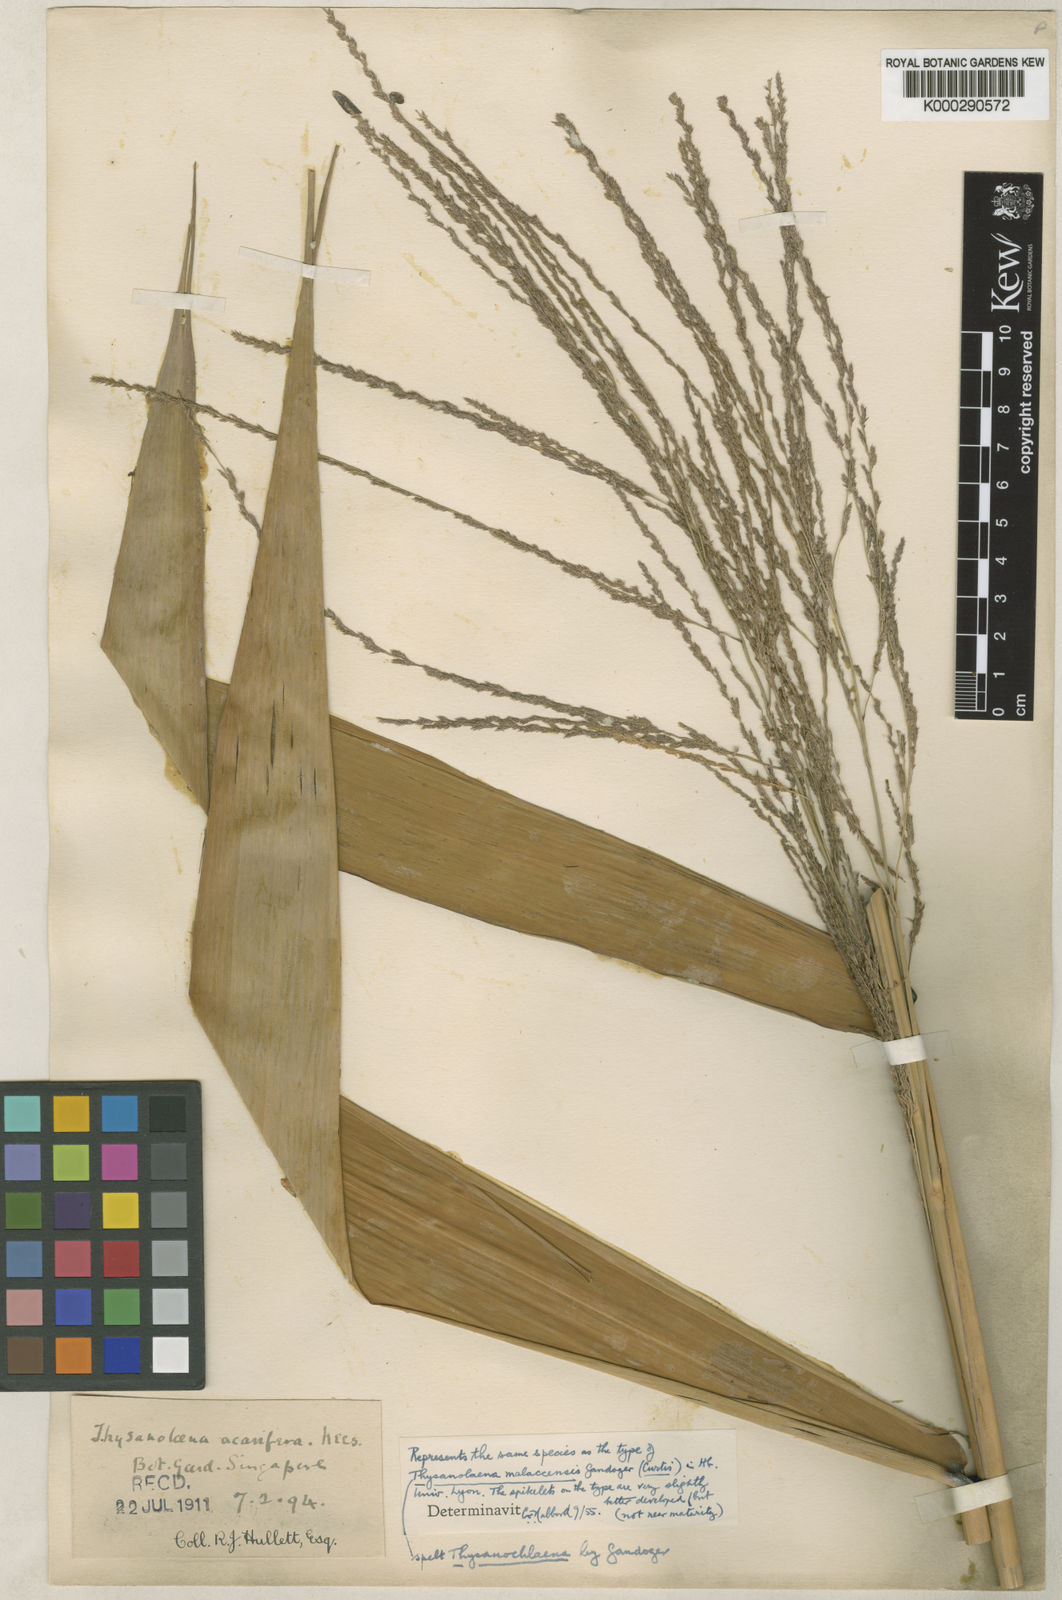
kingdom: Plantae
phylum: Tracheophyta
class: Liliopsida
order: Poales
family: Poaceae
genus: Thysanolaena
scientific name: Thysanolaena latifolia
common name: Tiger grass
